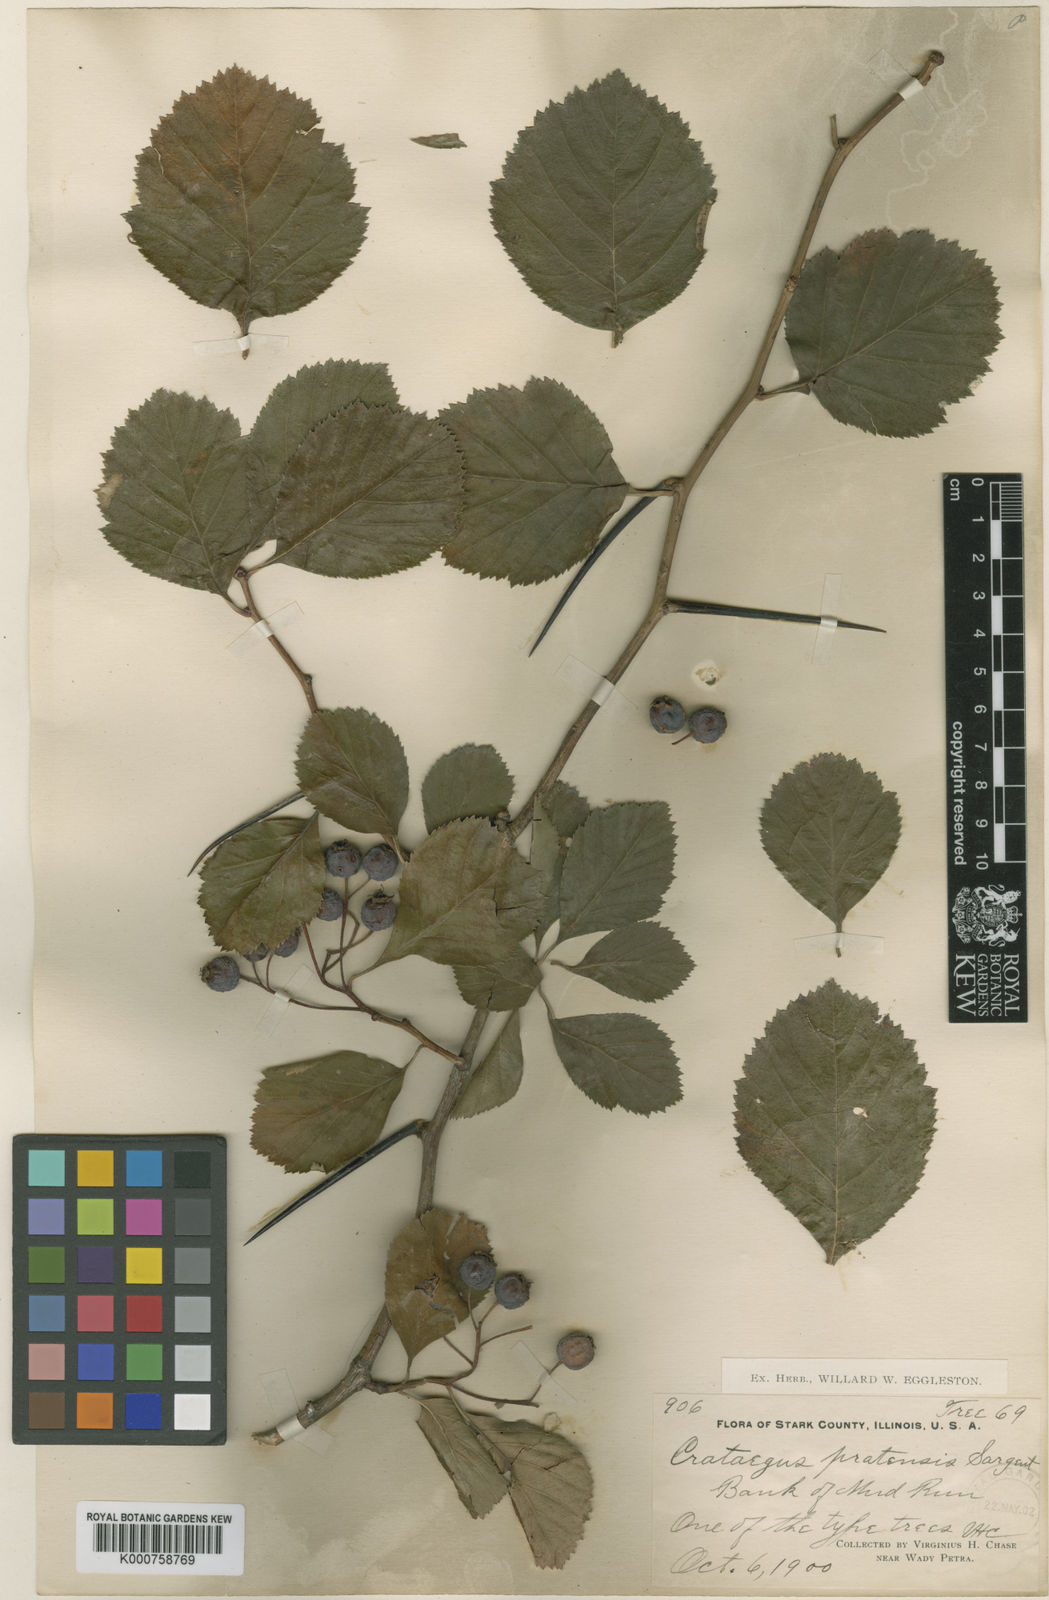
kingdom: Plantae
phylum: Tracheophyta
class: Magnoliopsida
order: Rosales
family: Rosaceae
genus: Crataegus
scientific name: Crataegus punctata
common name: Dotted hawthorn
